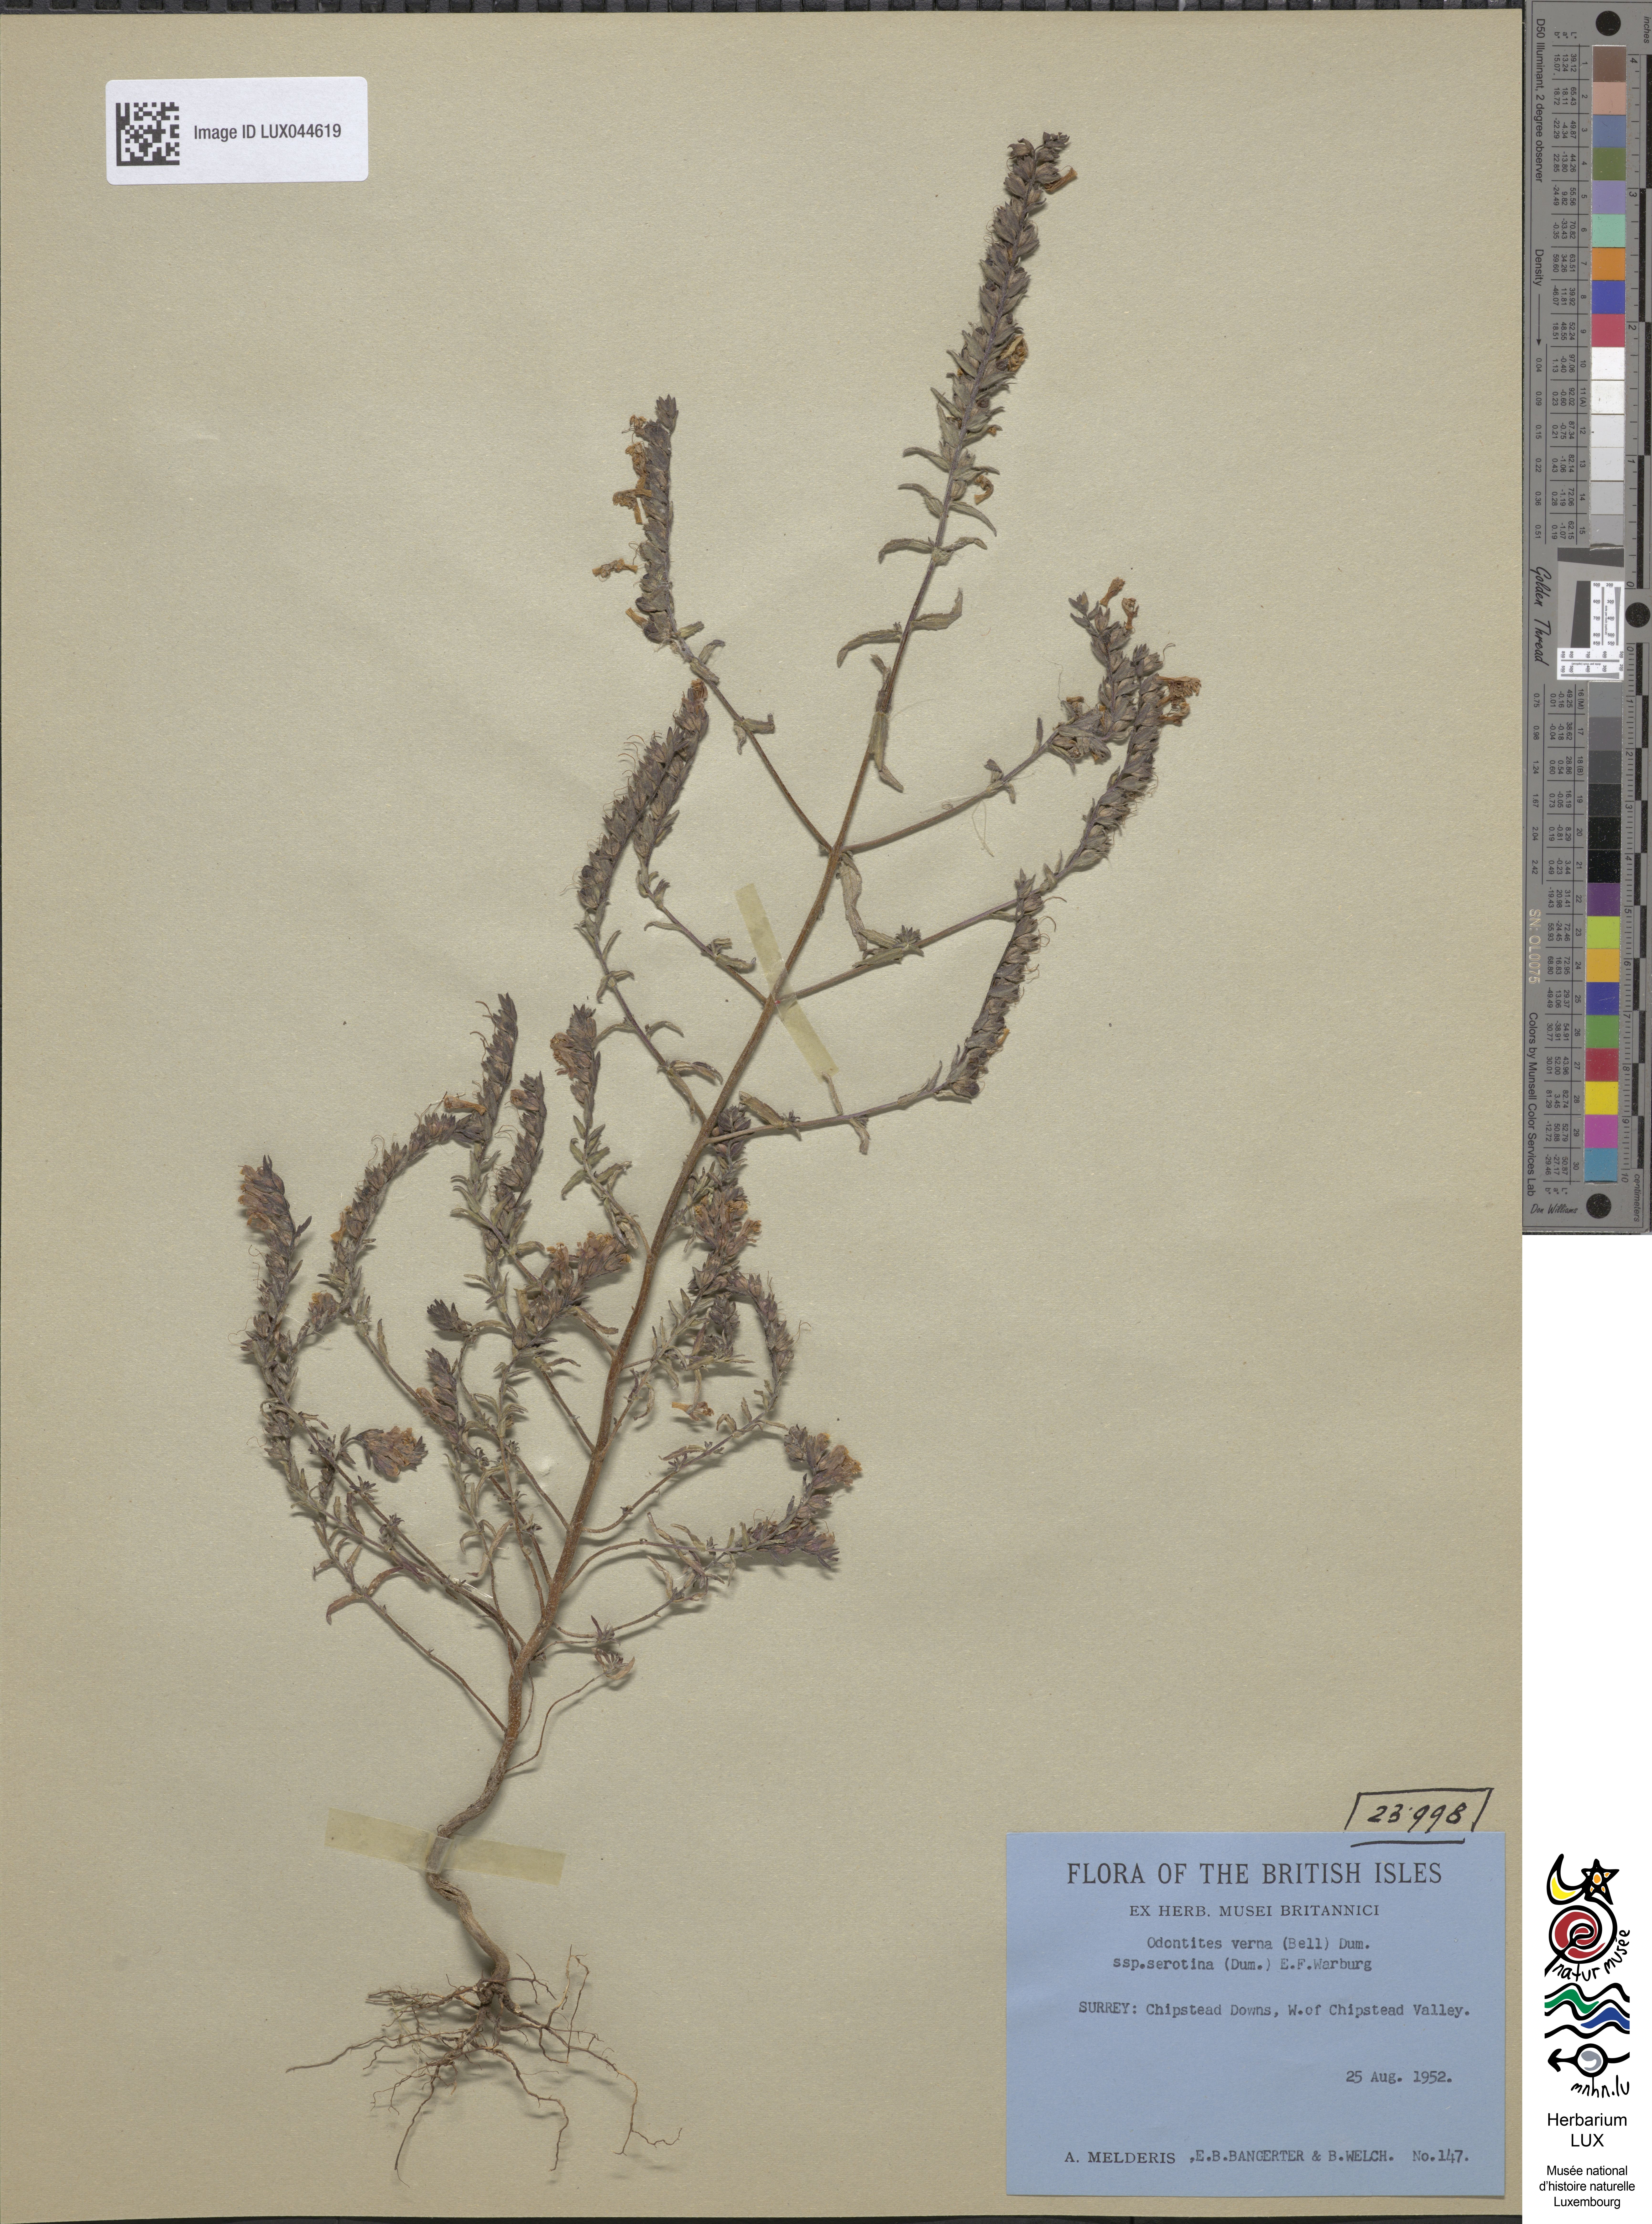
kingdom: Plantae
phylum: Tracheophyta
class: Magnoliopsida
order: Lamiales
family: Orobanchaceae
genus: Odontites
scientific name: Odontites vulgaris
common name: Broomrape
